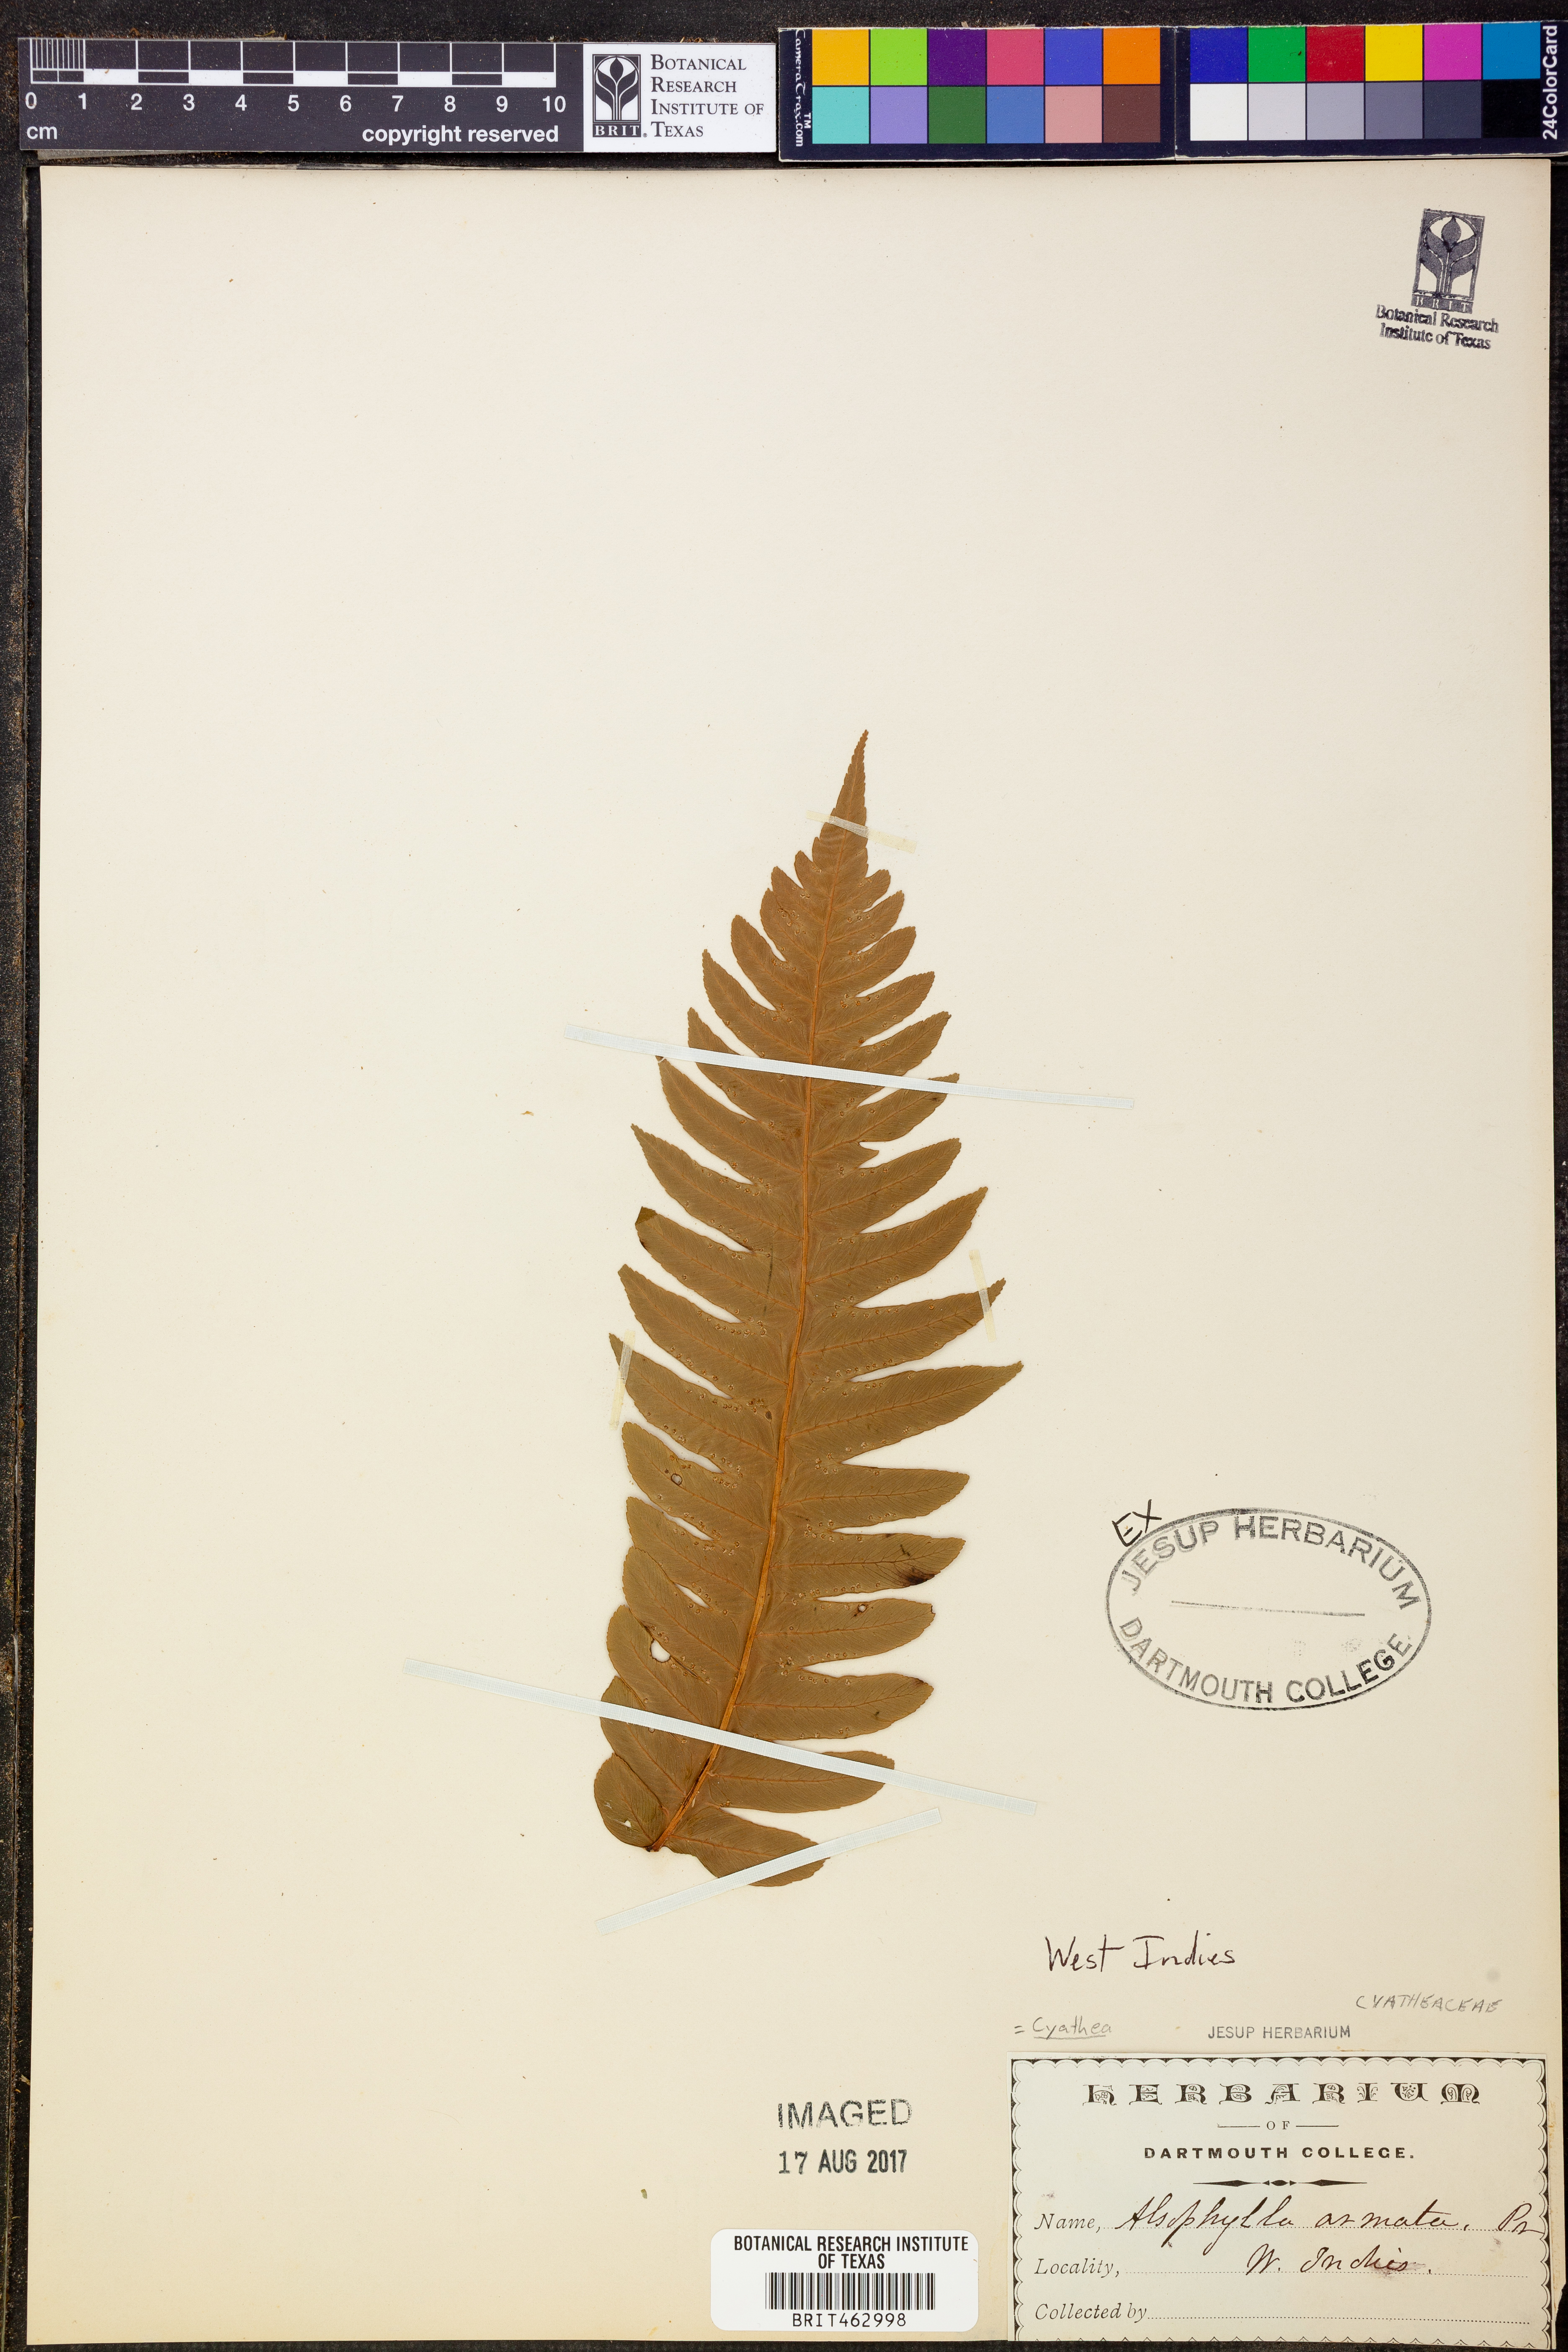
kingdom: Plantae
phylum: Tracheophyta
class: Polypodiopsida
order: Cyatheales
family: Cyatheaceae
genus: Cyathea
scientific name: Cyathea
